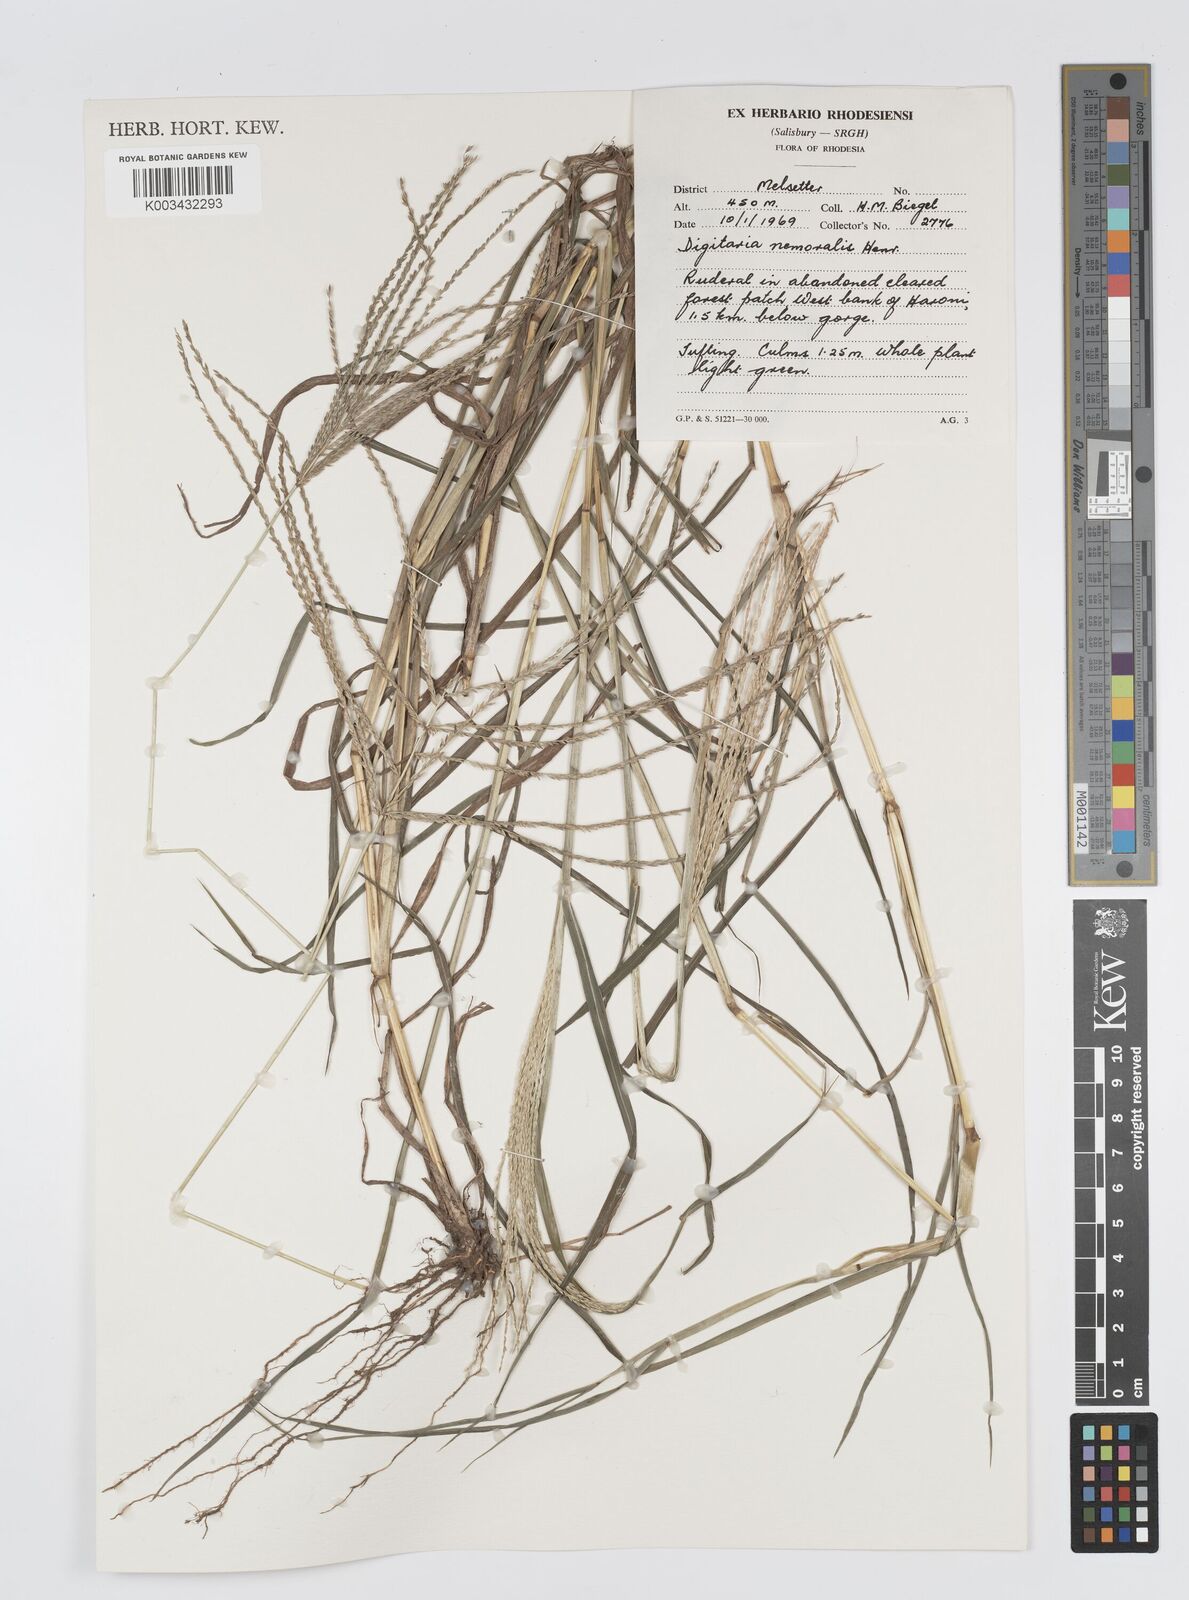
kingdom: Plantae
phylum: Tracheophyta
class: Liliopsida
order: Poales
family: Poaceae
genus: Digitaria
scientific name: Digitaria seriata
